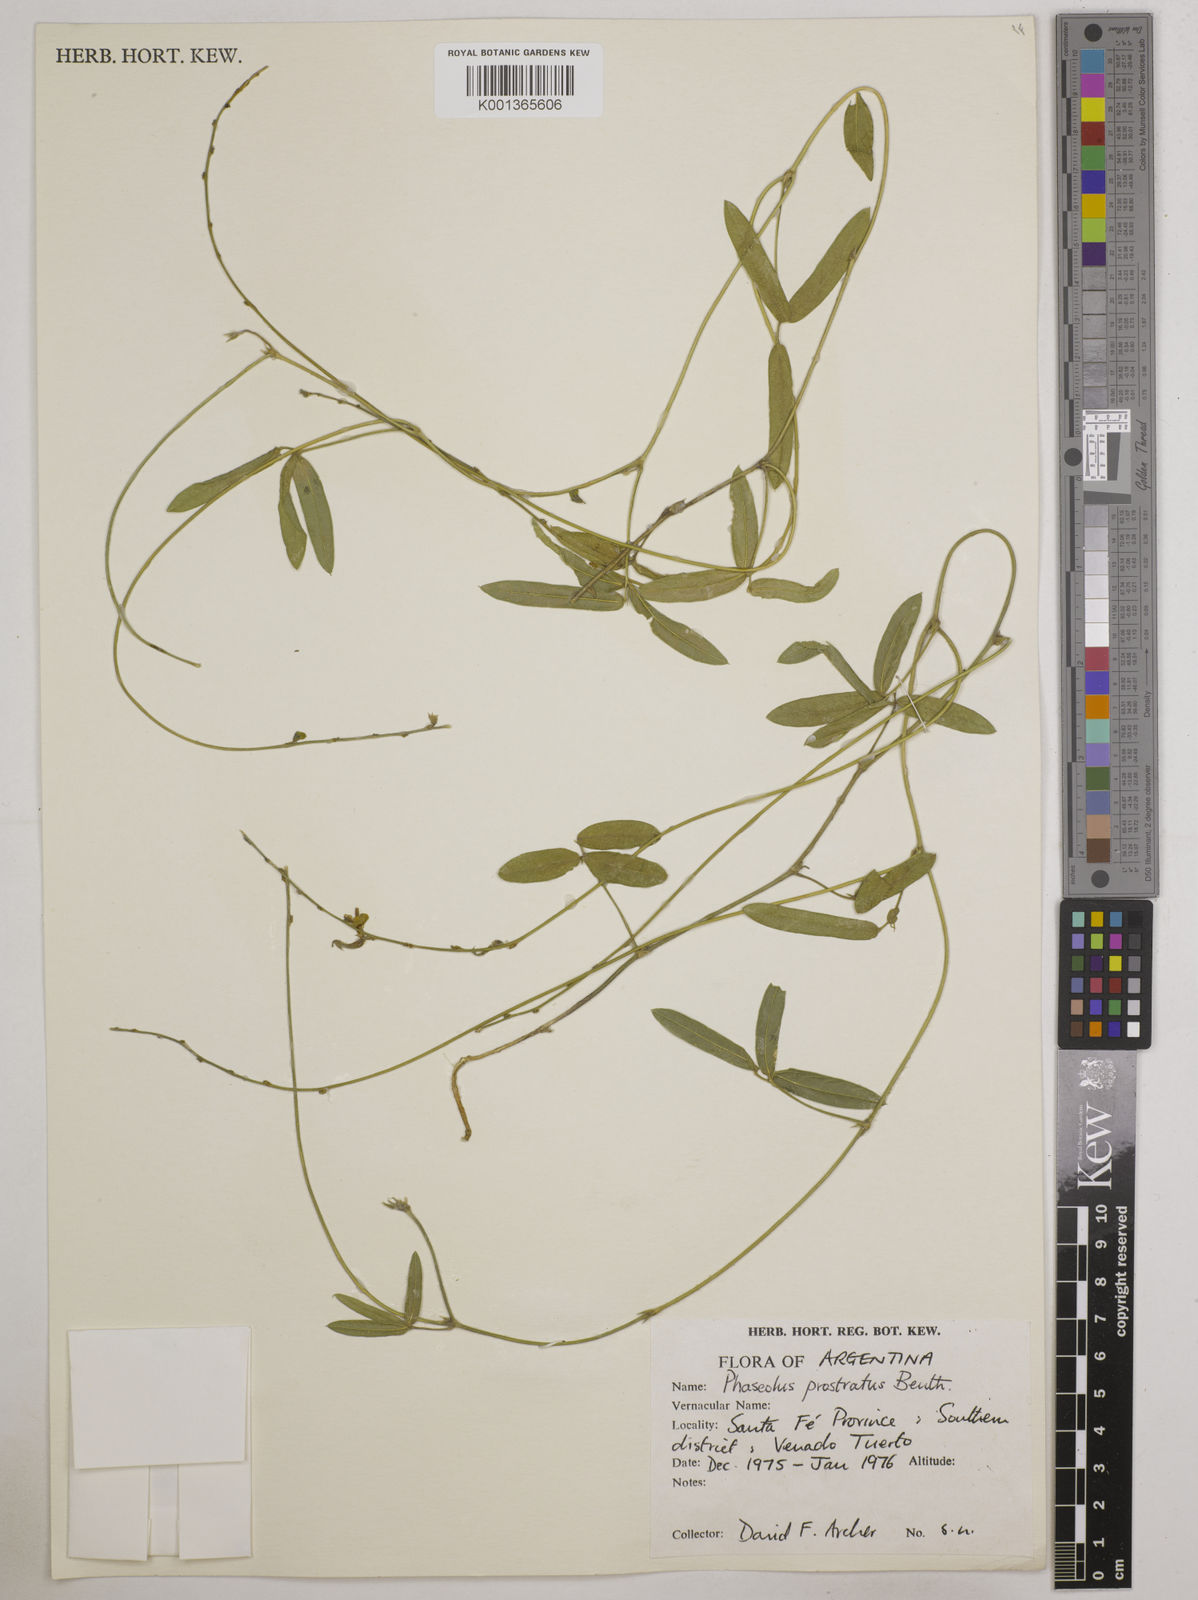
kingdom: Plantae
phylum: Tracheophyta
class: Magnoliopsida
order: Fabales
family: Fabaceae
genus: Macroptilium
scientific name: Macroptilium prostratum
